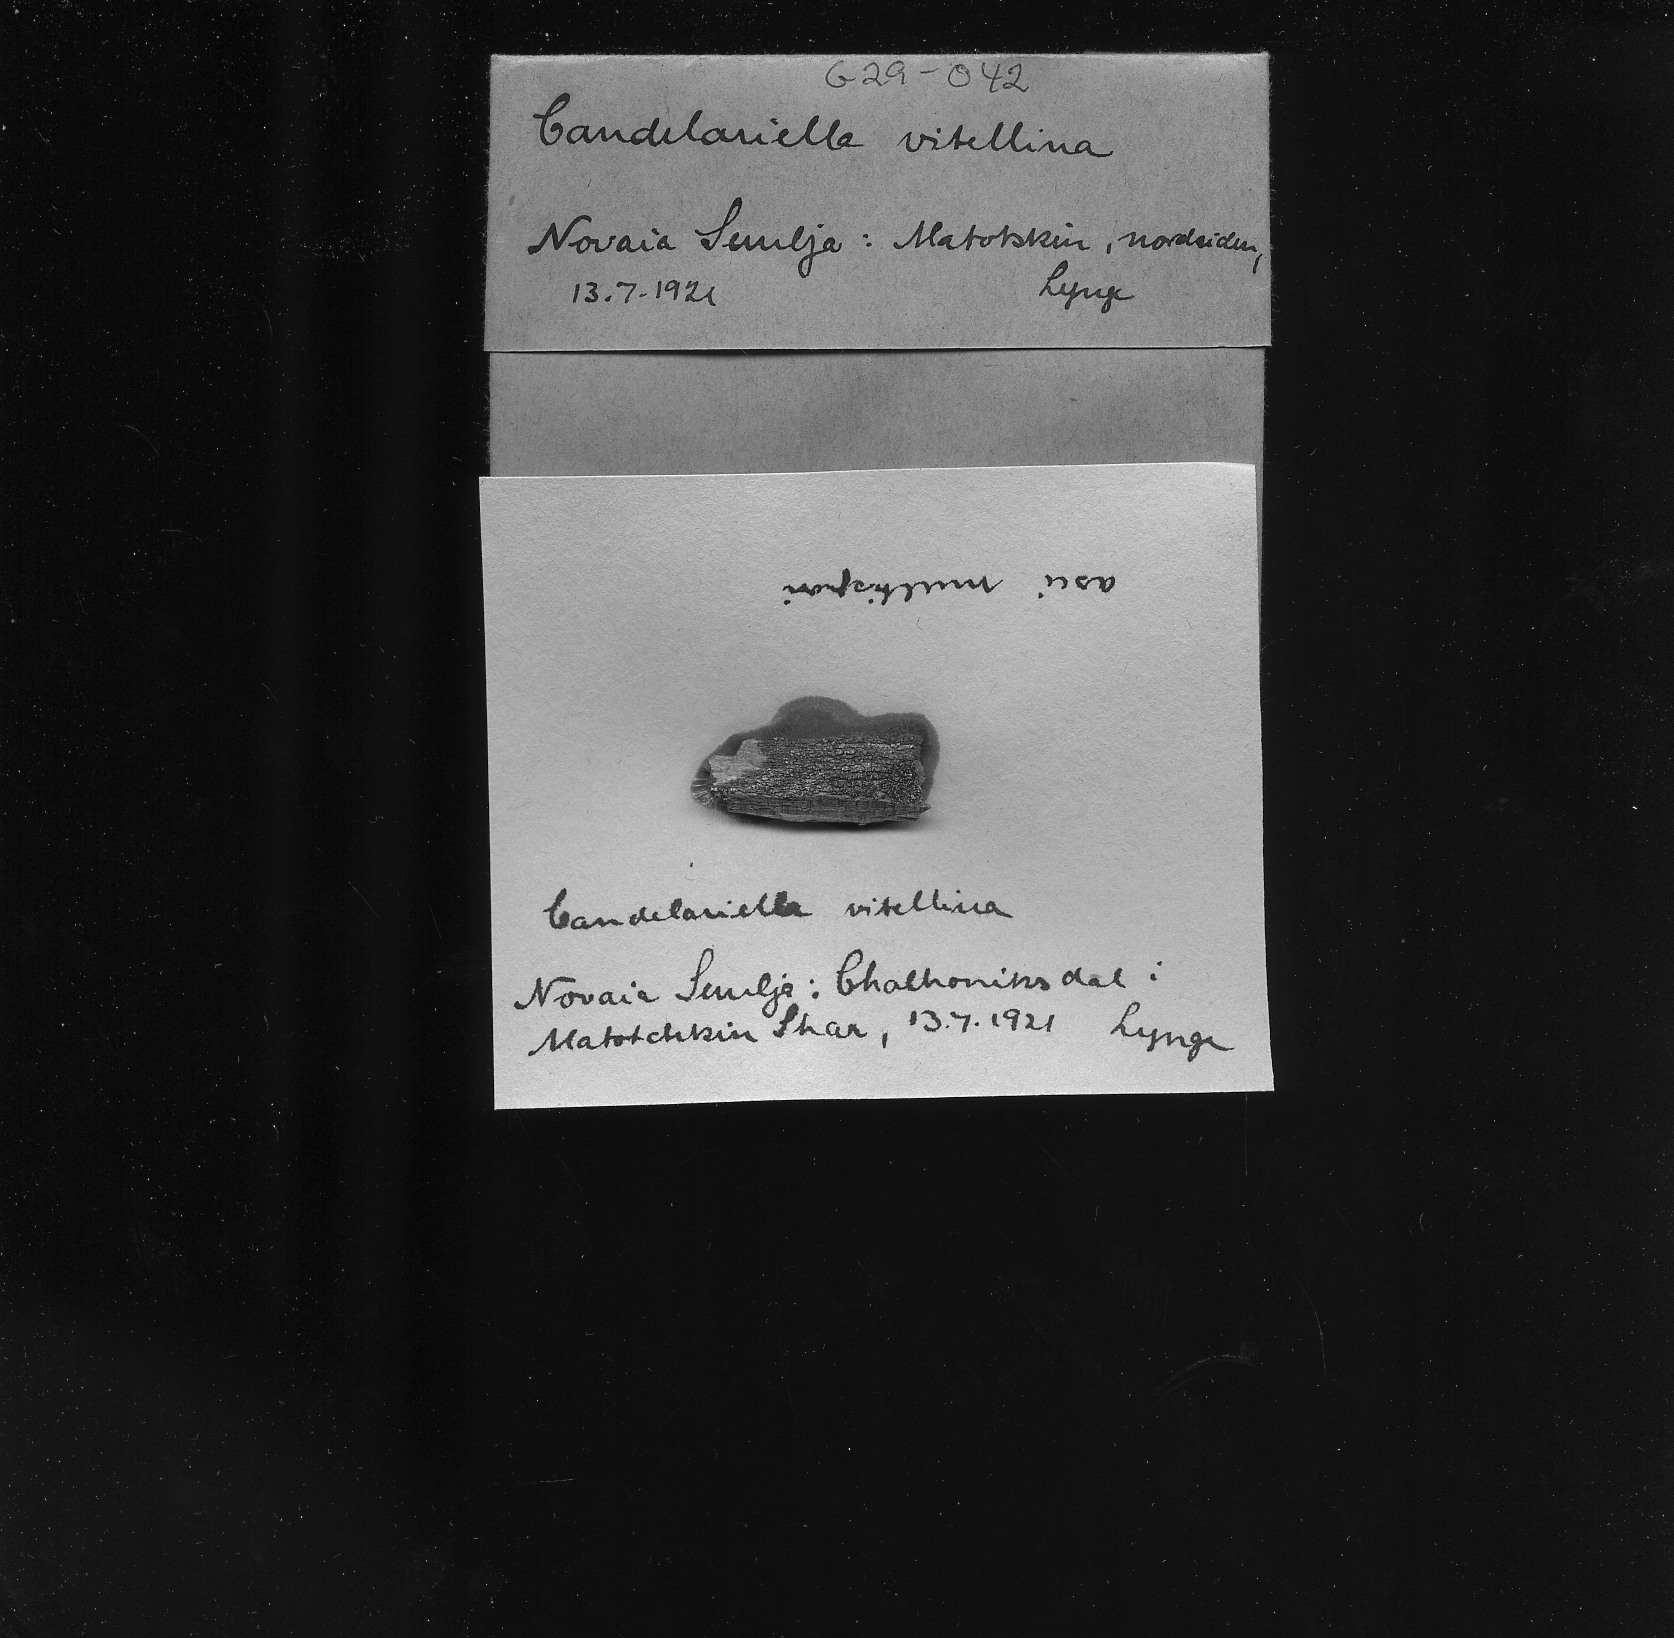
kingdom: Fungi
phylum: Ascomycota
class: Candelariomycetes
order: Candelariales
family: Candelariaceae
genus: Candelariella
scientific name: Candelariella vitellina
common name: Common goldspeck
